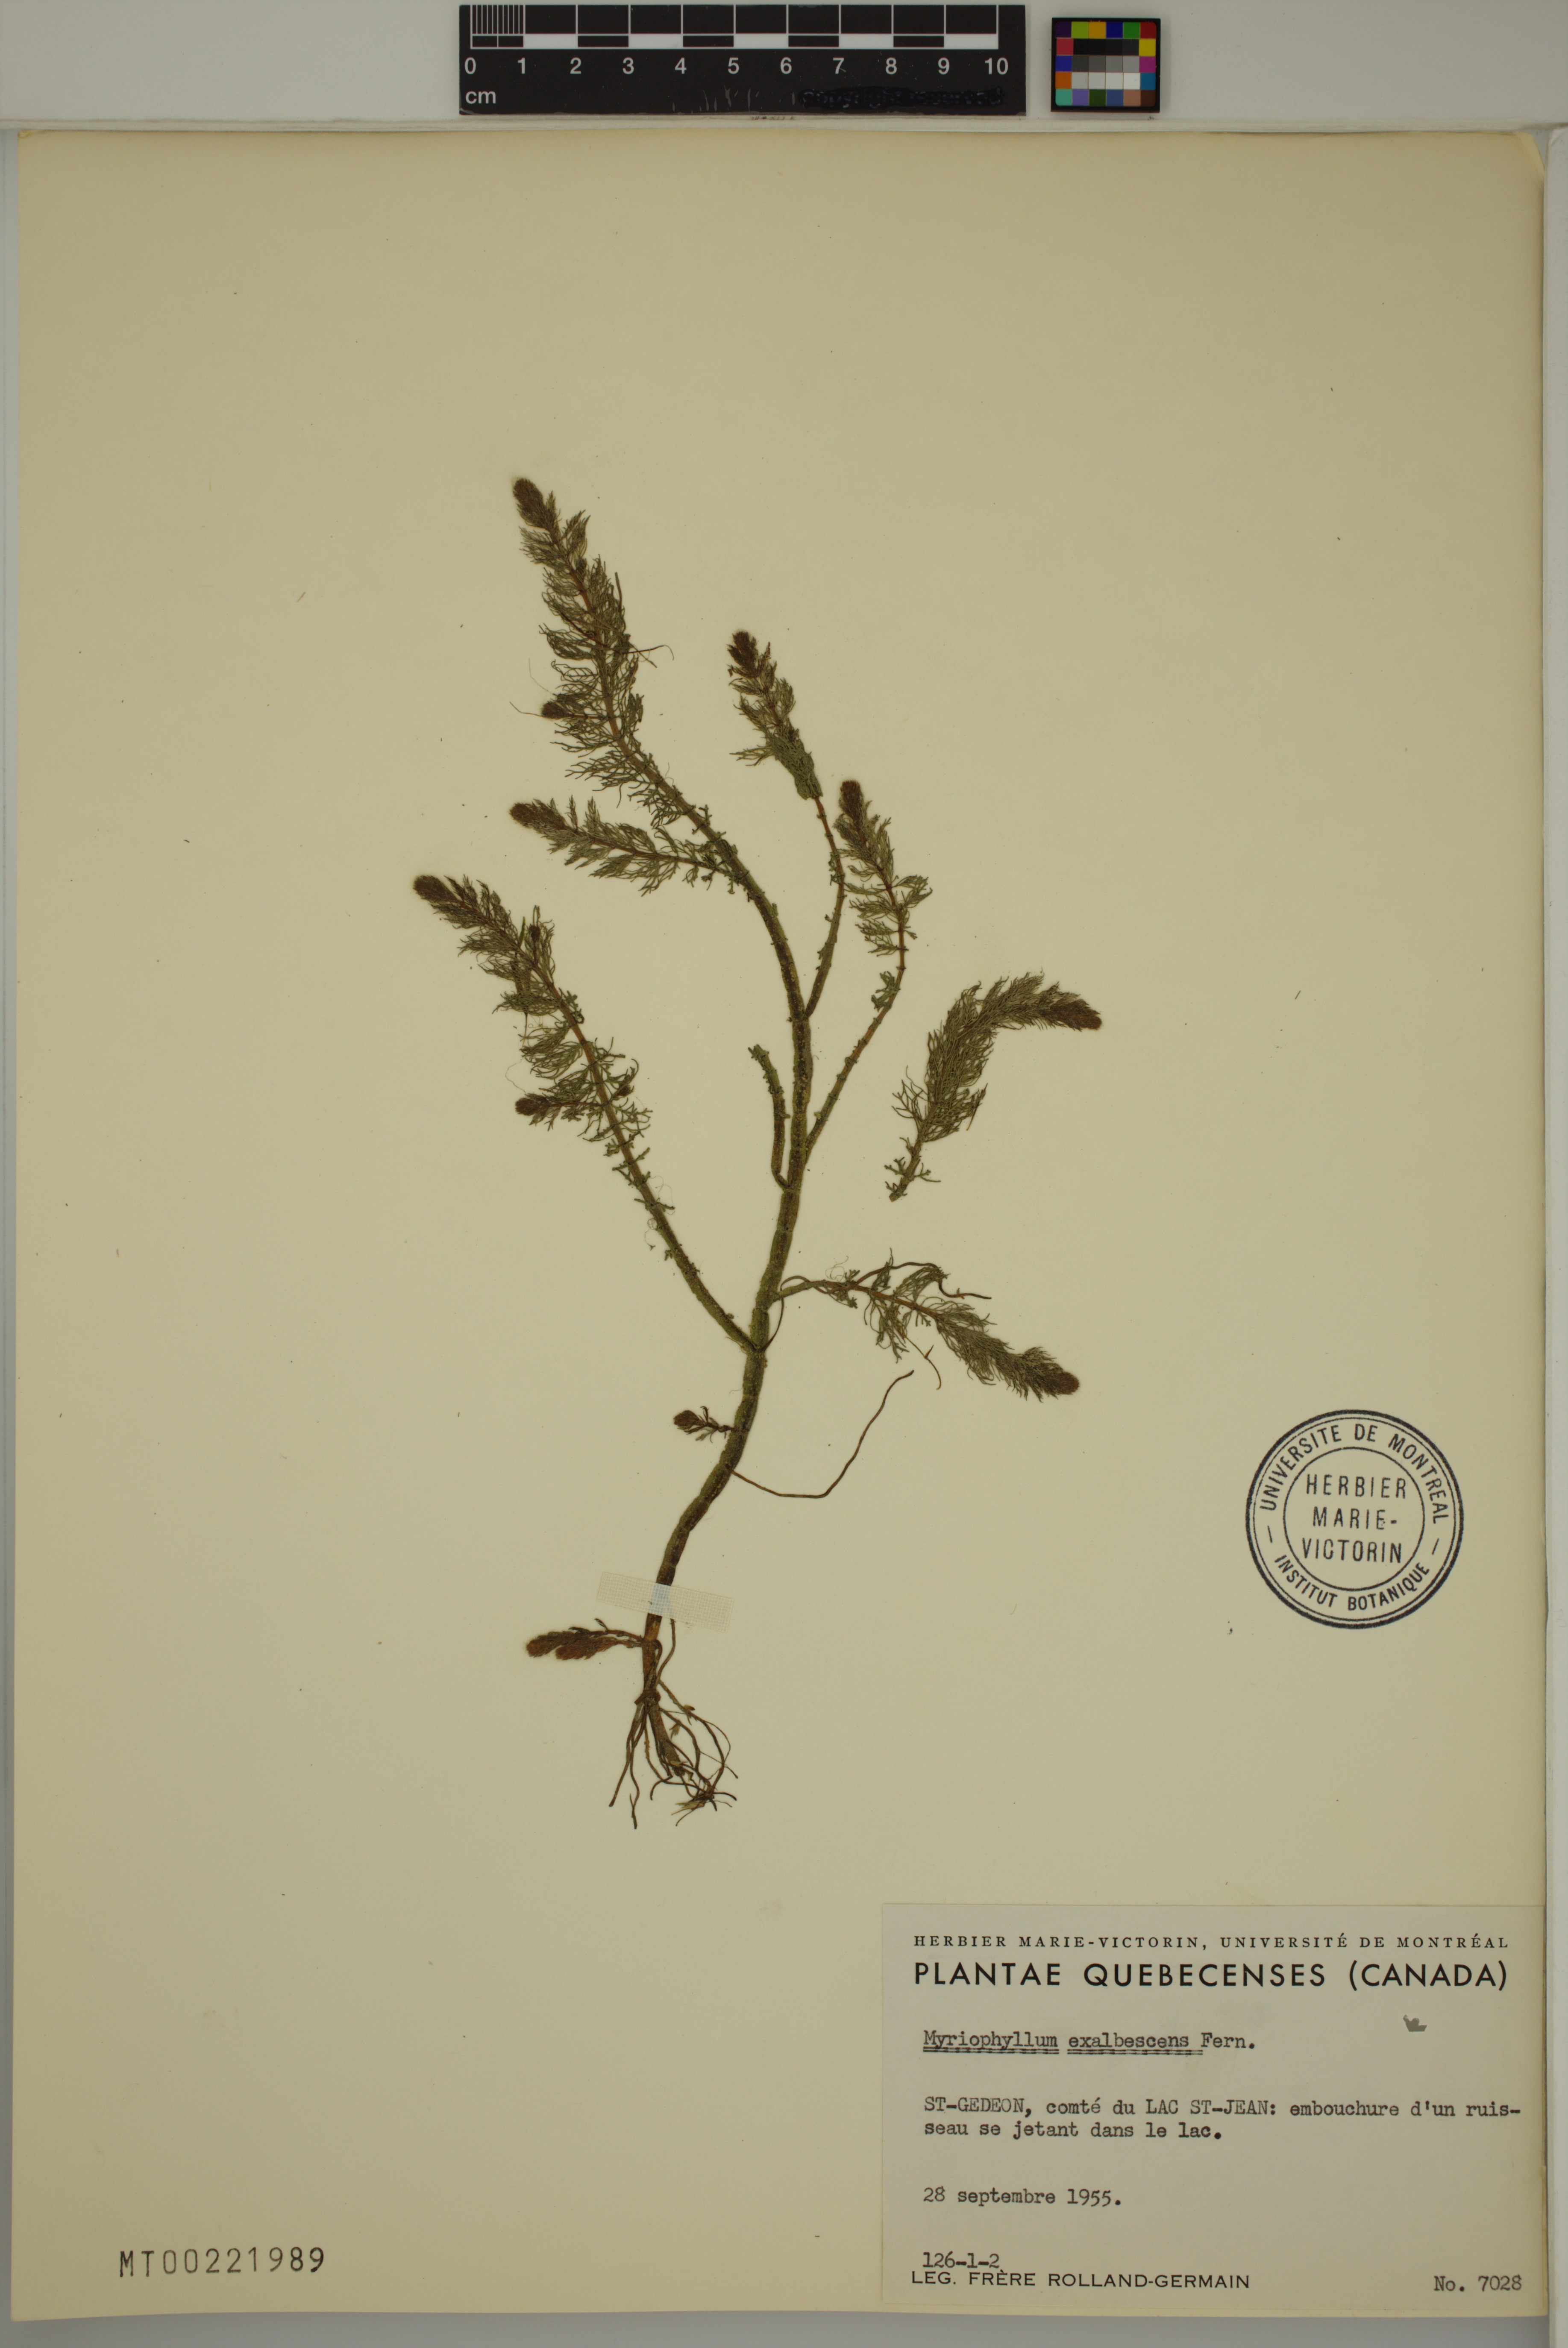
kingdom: Plantae
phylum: Tracheophyta
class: Magnoliopsida
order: Saxifragales
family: Haloragaceae
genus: Myriophyllum
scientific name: Myriophyllum sibiricum
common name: Siberian water-milfoil
